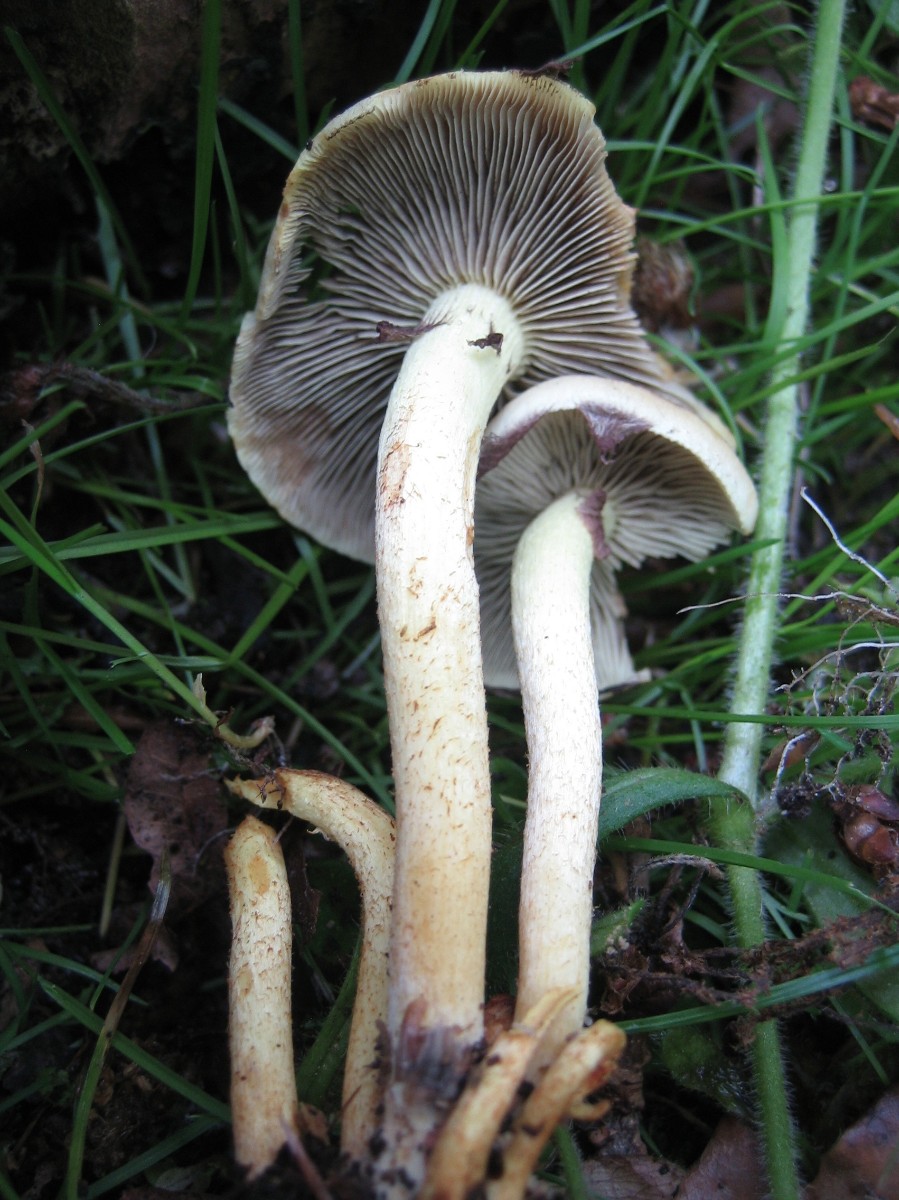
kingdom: Fungi
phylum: Basidiomycota
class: Agaricomycetes
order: Agaricales
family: Strophariaceae
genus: Hypholoma
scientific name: Hypholoma lateritium
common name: teglrød svovlhat
